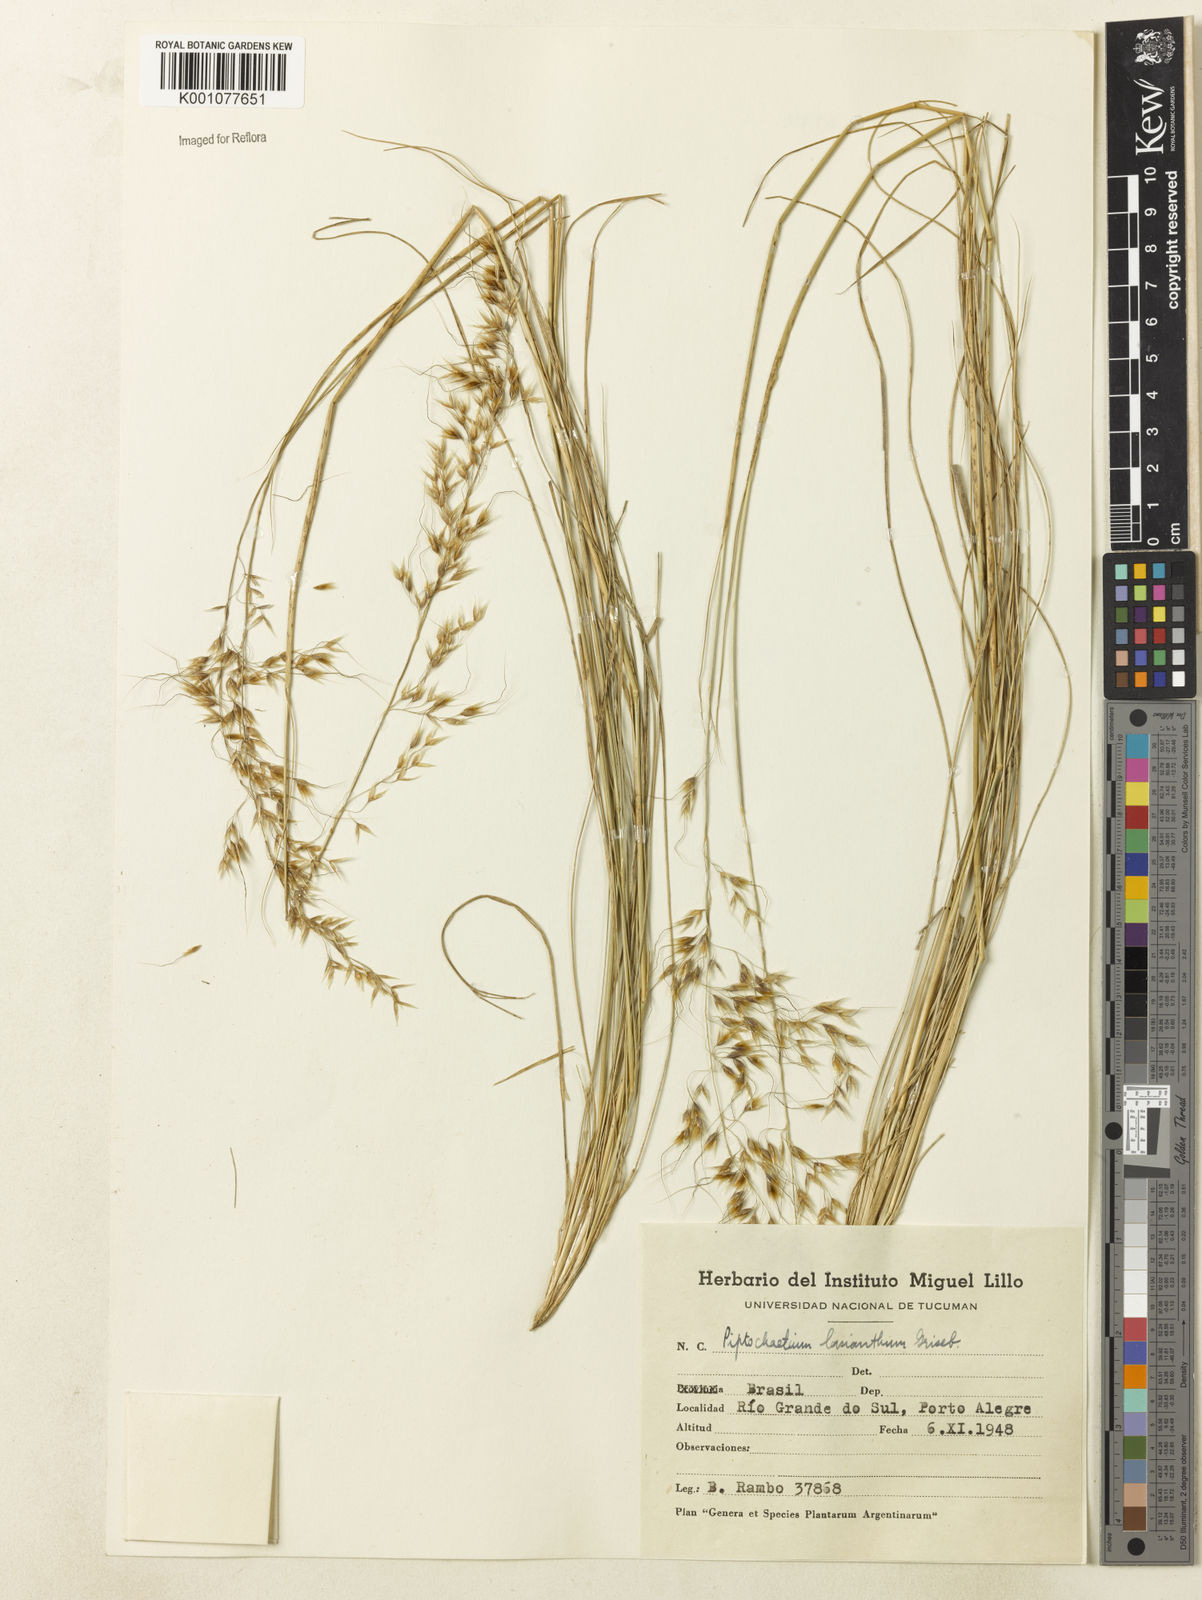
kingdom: Plantae
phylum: Tracheophyta
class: Liliopsida
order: Poales
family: Poaceae
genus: Piptochaetium
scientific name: Piptochaetium lasianthum
